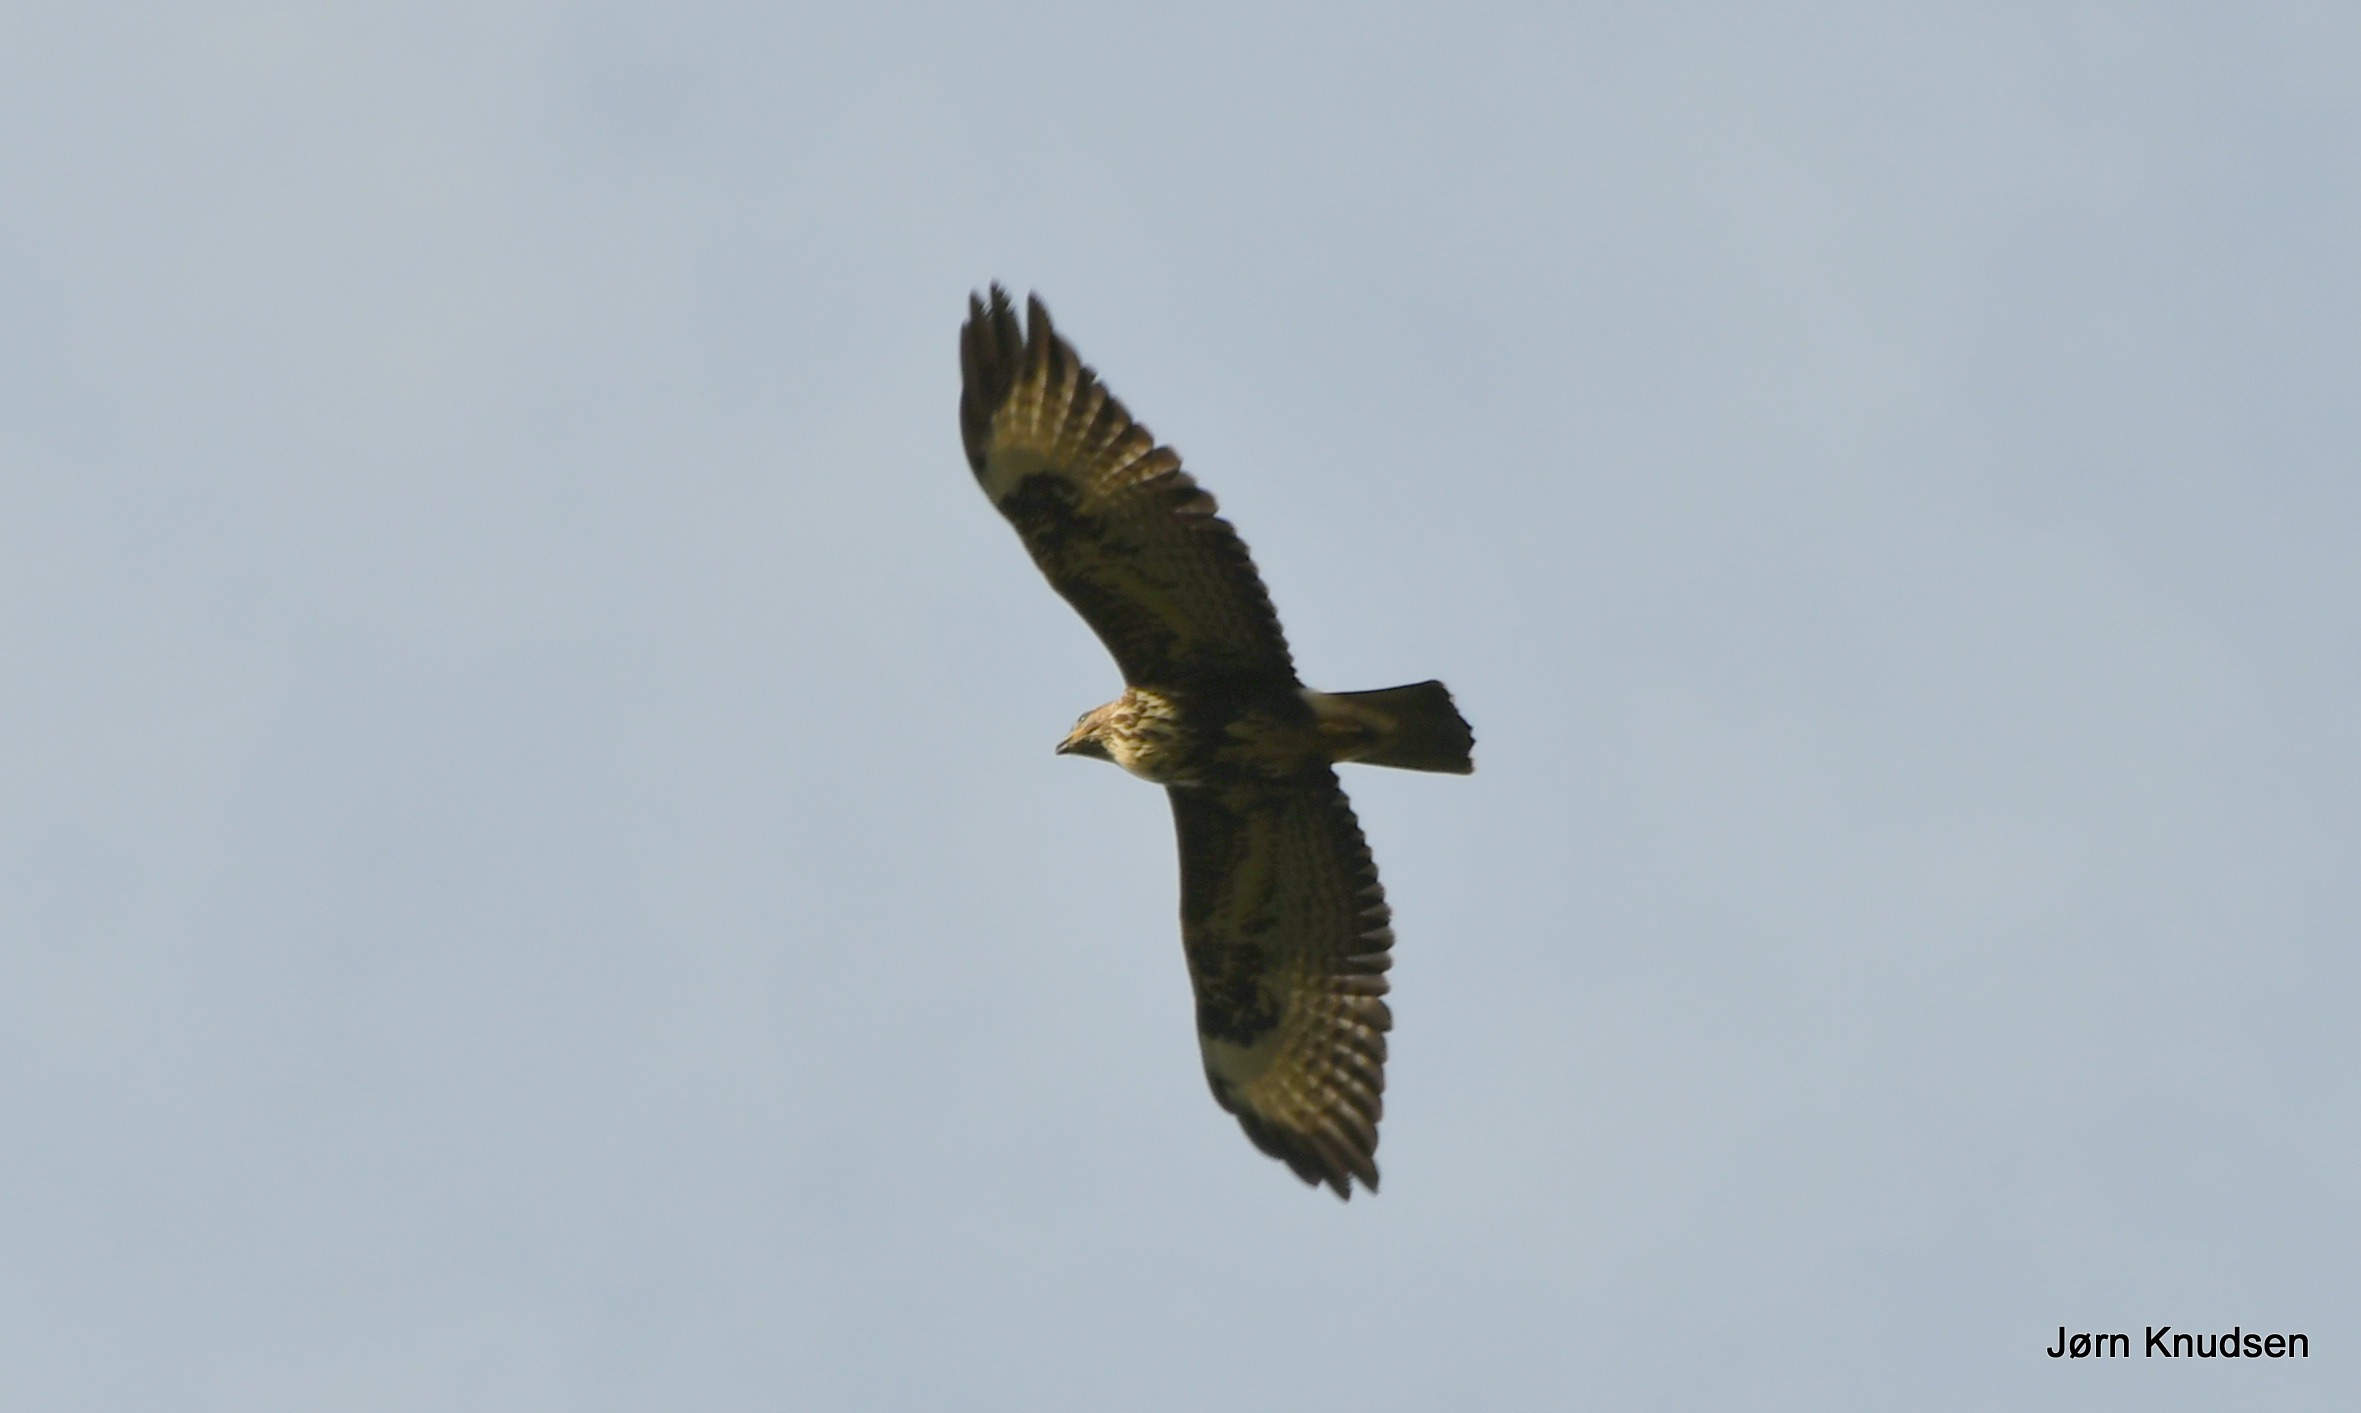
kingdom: Animalia
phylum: Chordata
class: Aves
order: Accipitriformes
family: Accipitridae
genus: Buteo
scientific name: Buteo buteo
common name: Musvåge
